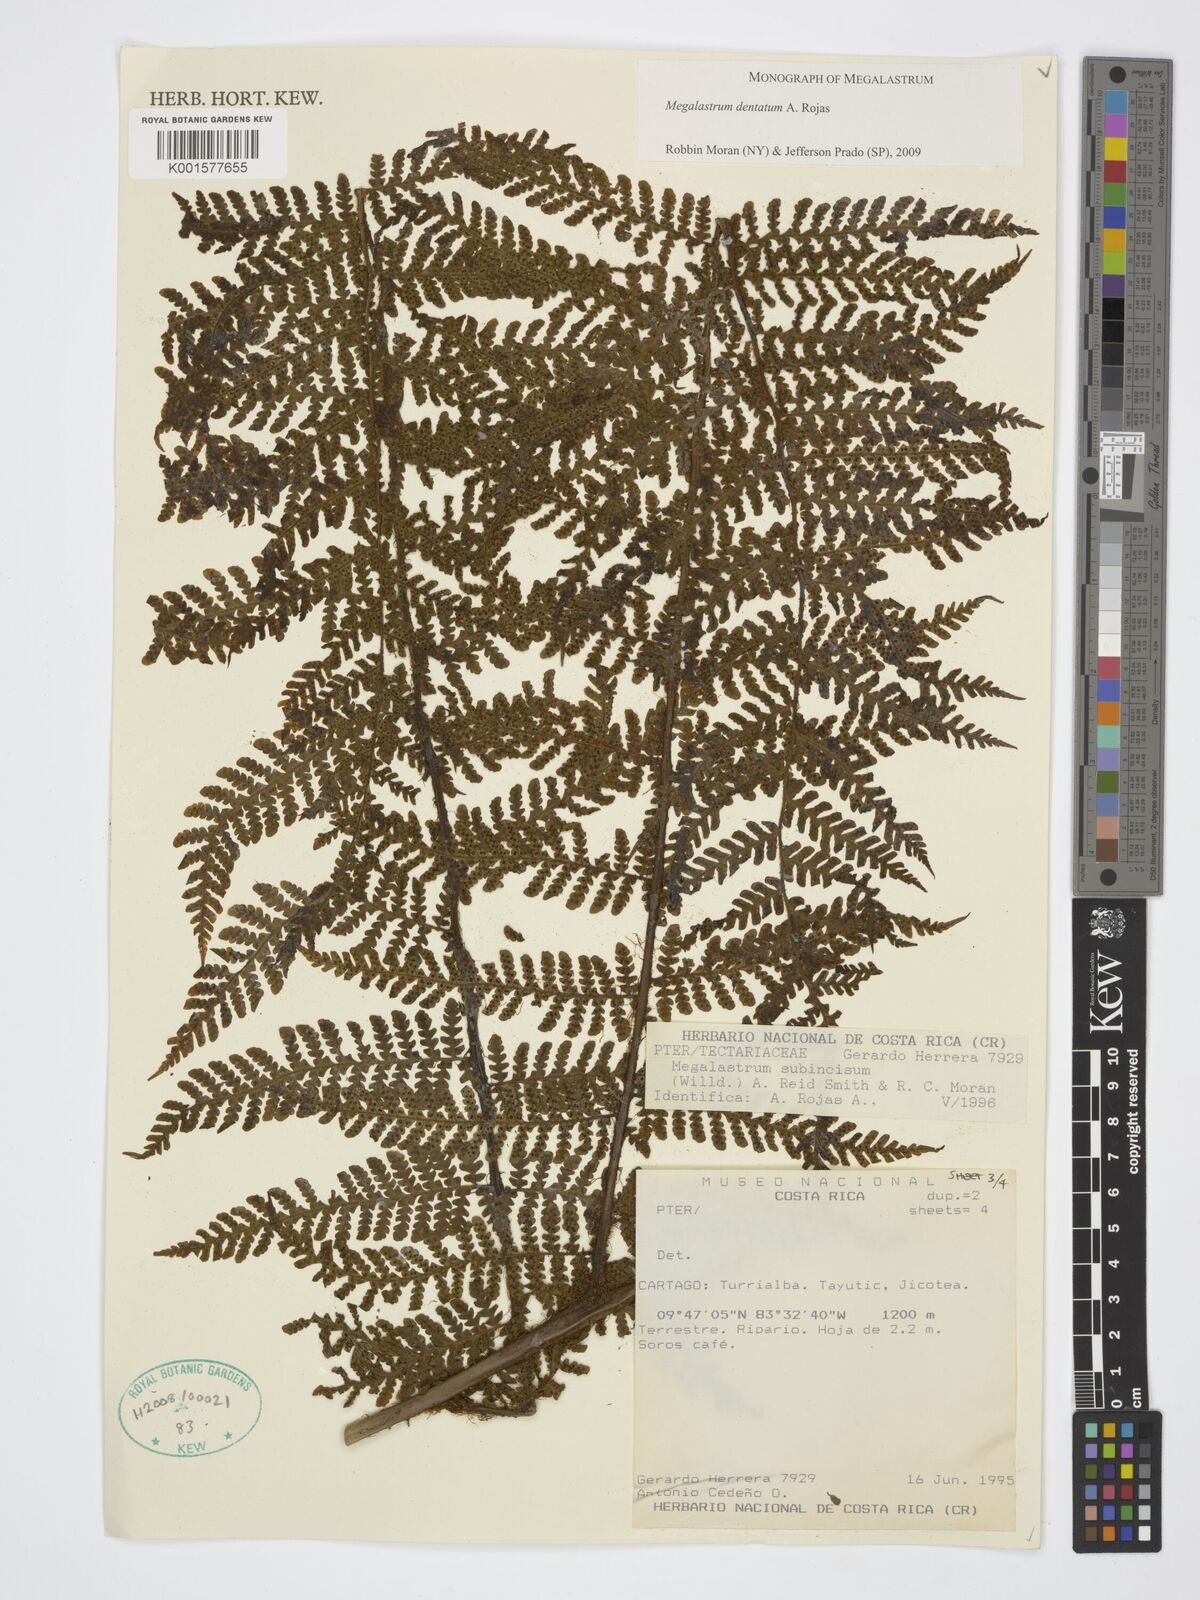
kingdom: Plantae
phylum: Tracheophyta
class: Polypodiopsida
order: Polypodiales
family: Dryopteridaceae
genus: Megalastrum
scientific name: Megalastrum dentatum
